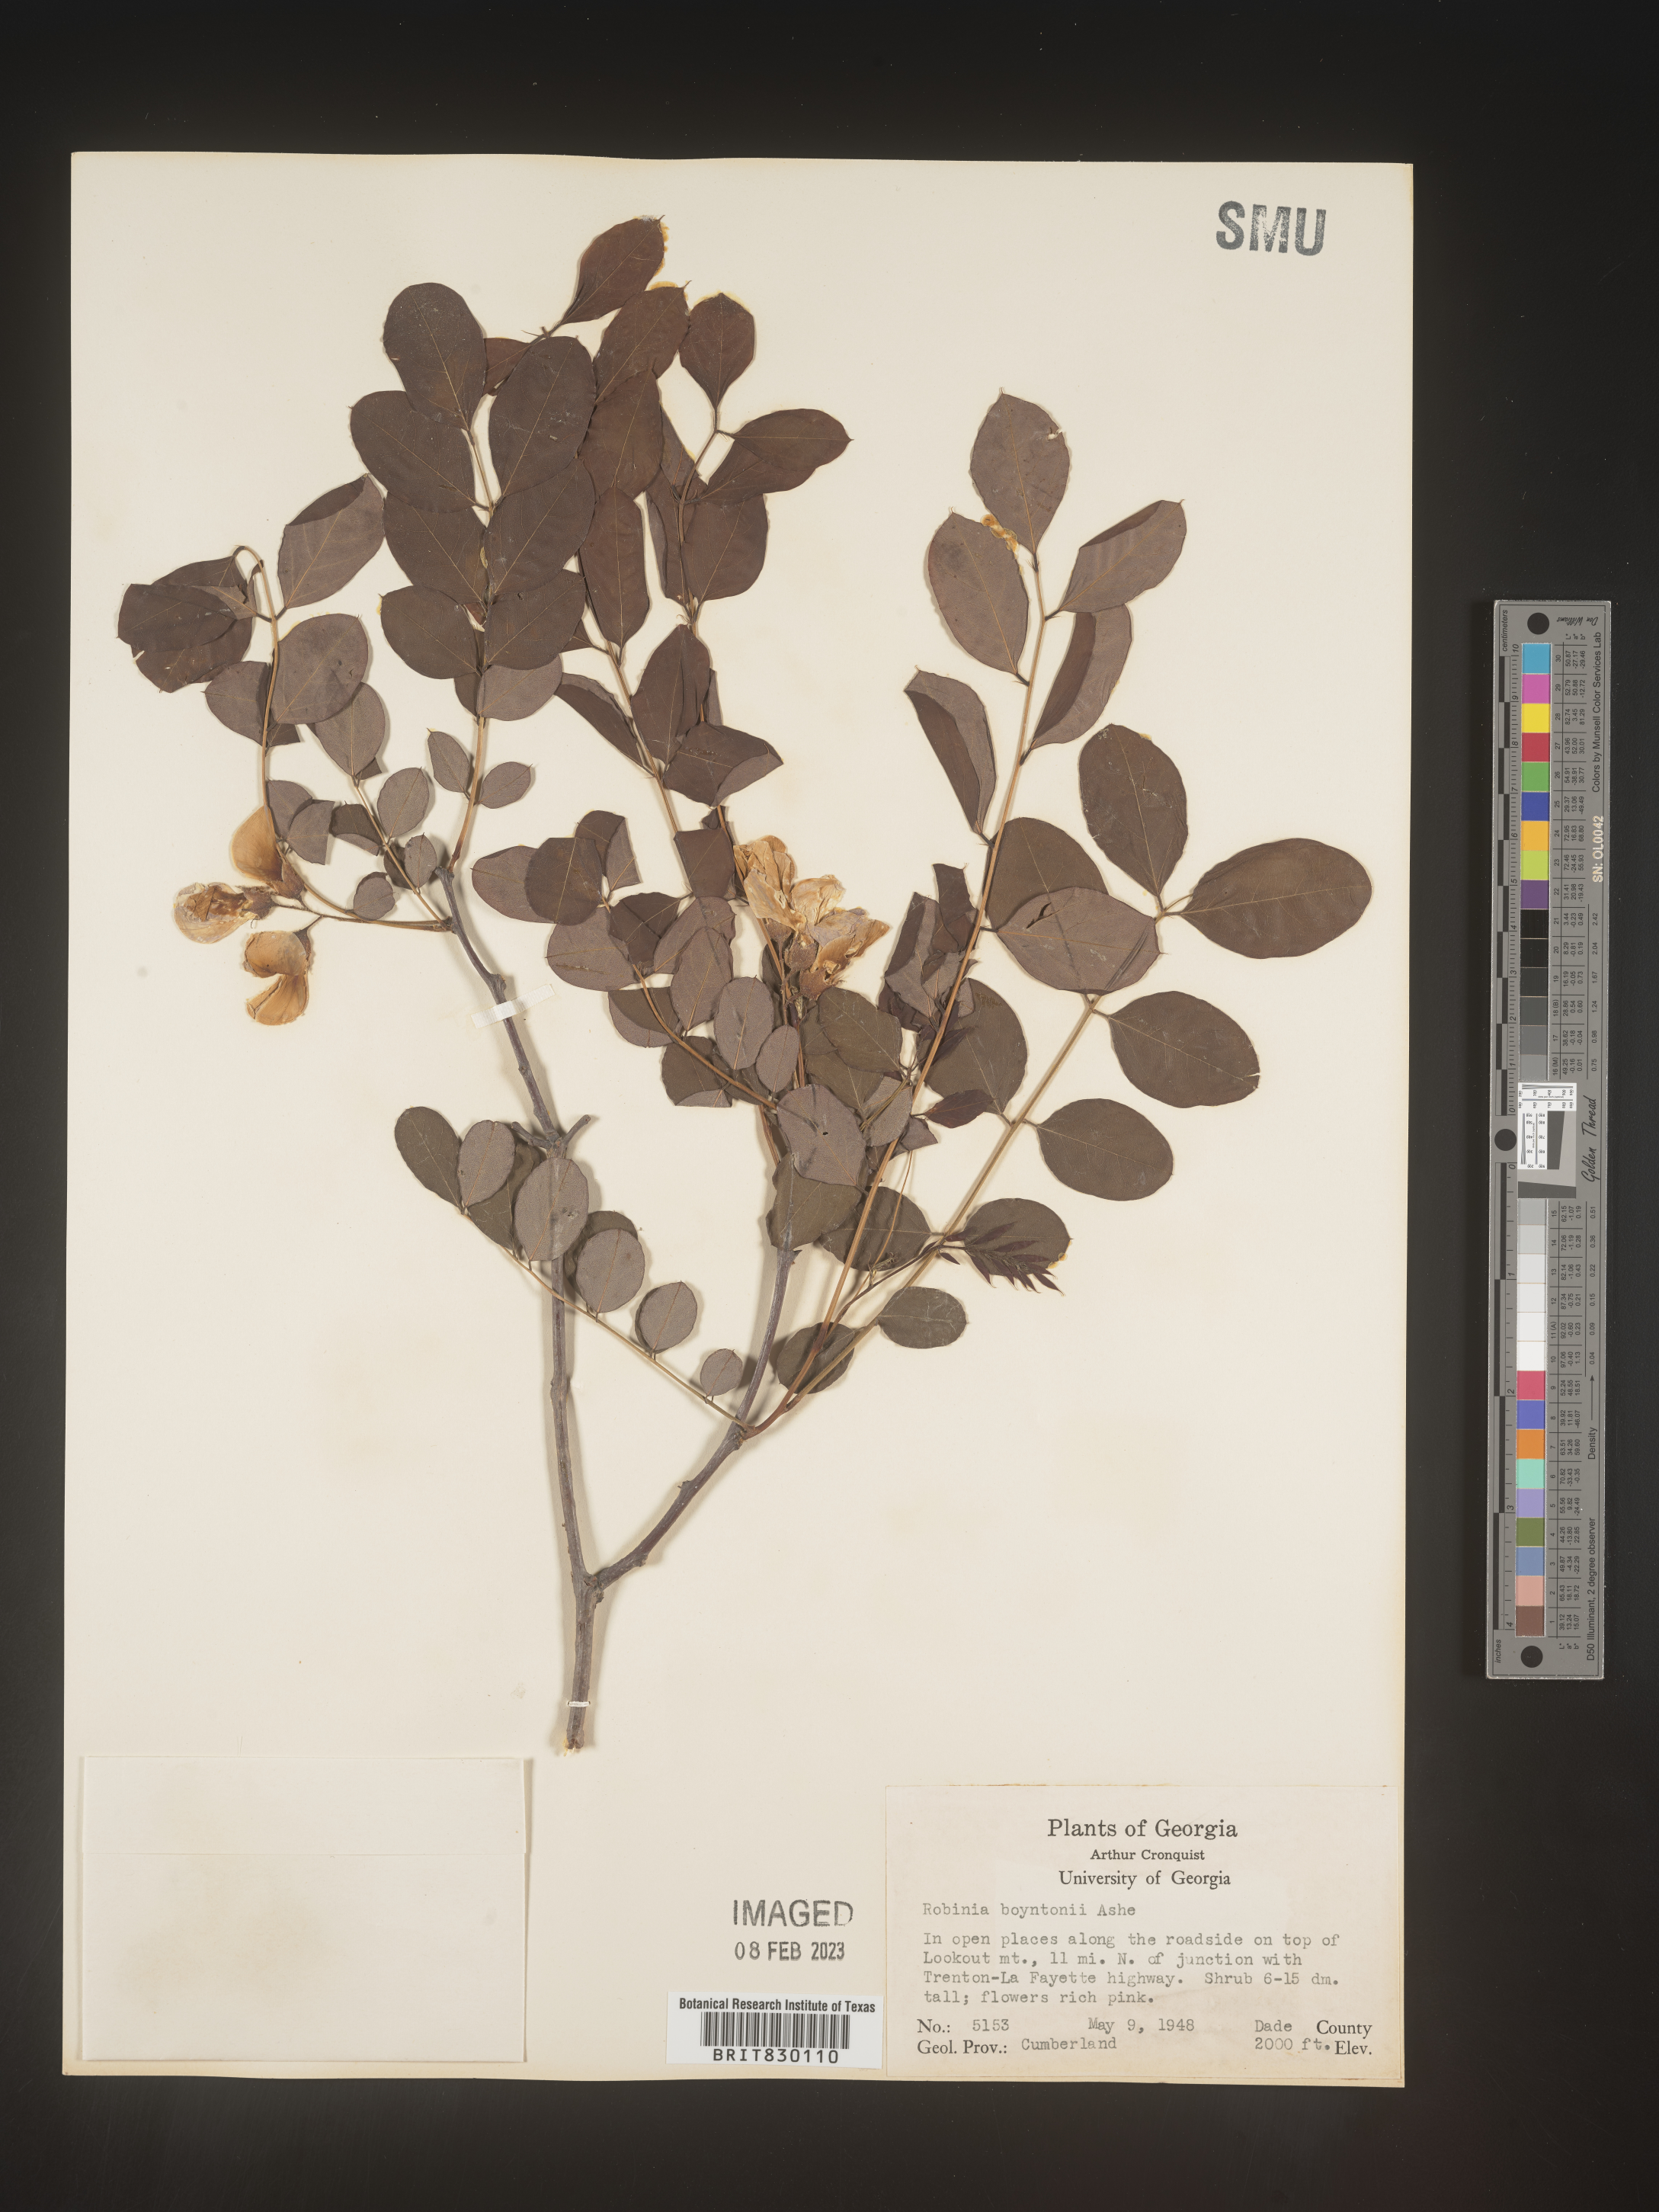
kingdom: Plantae
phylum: Tracheophyta
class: Magnoliopsida
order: Fabales
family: Fabaceae
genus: Robinia
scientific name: Robinia
